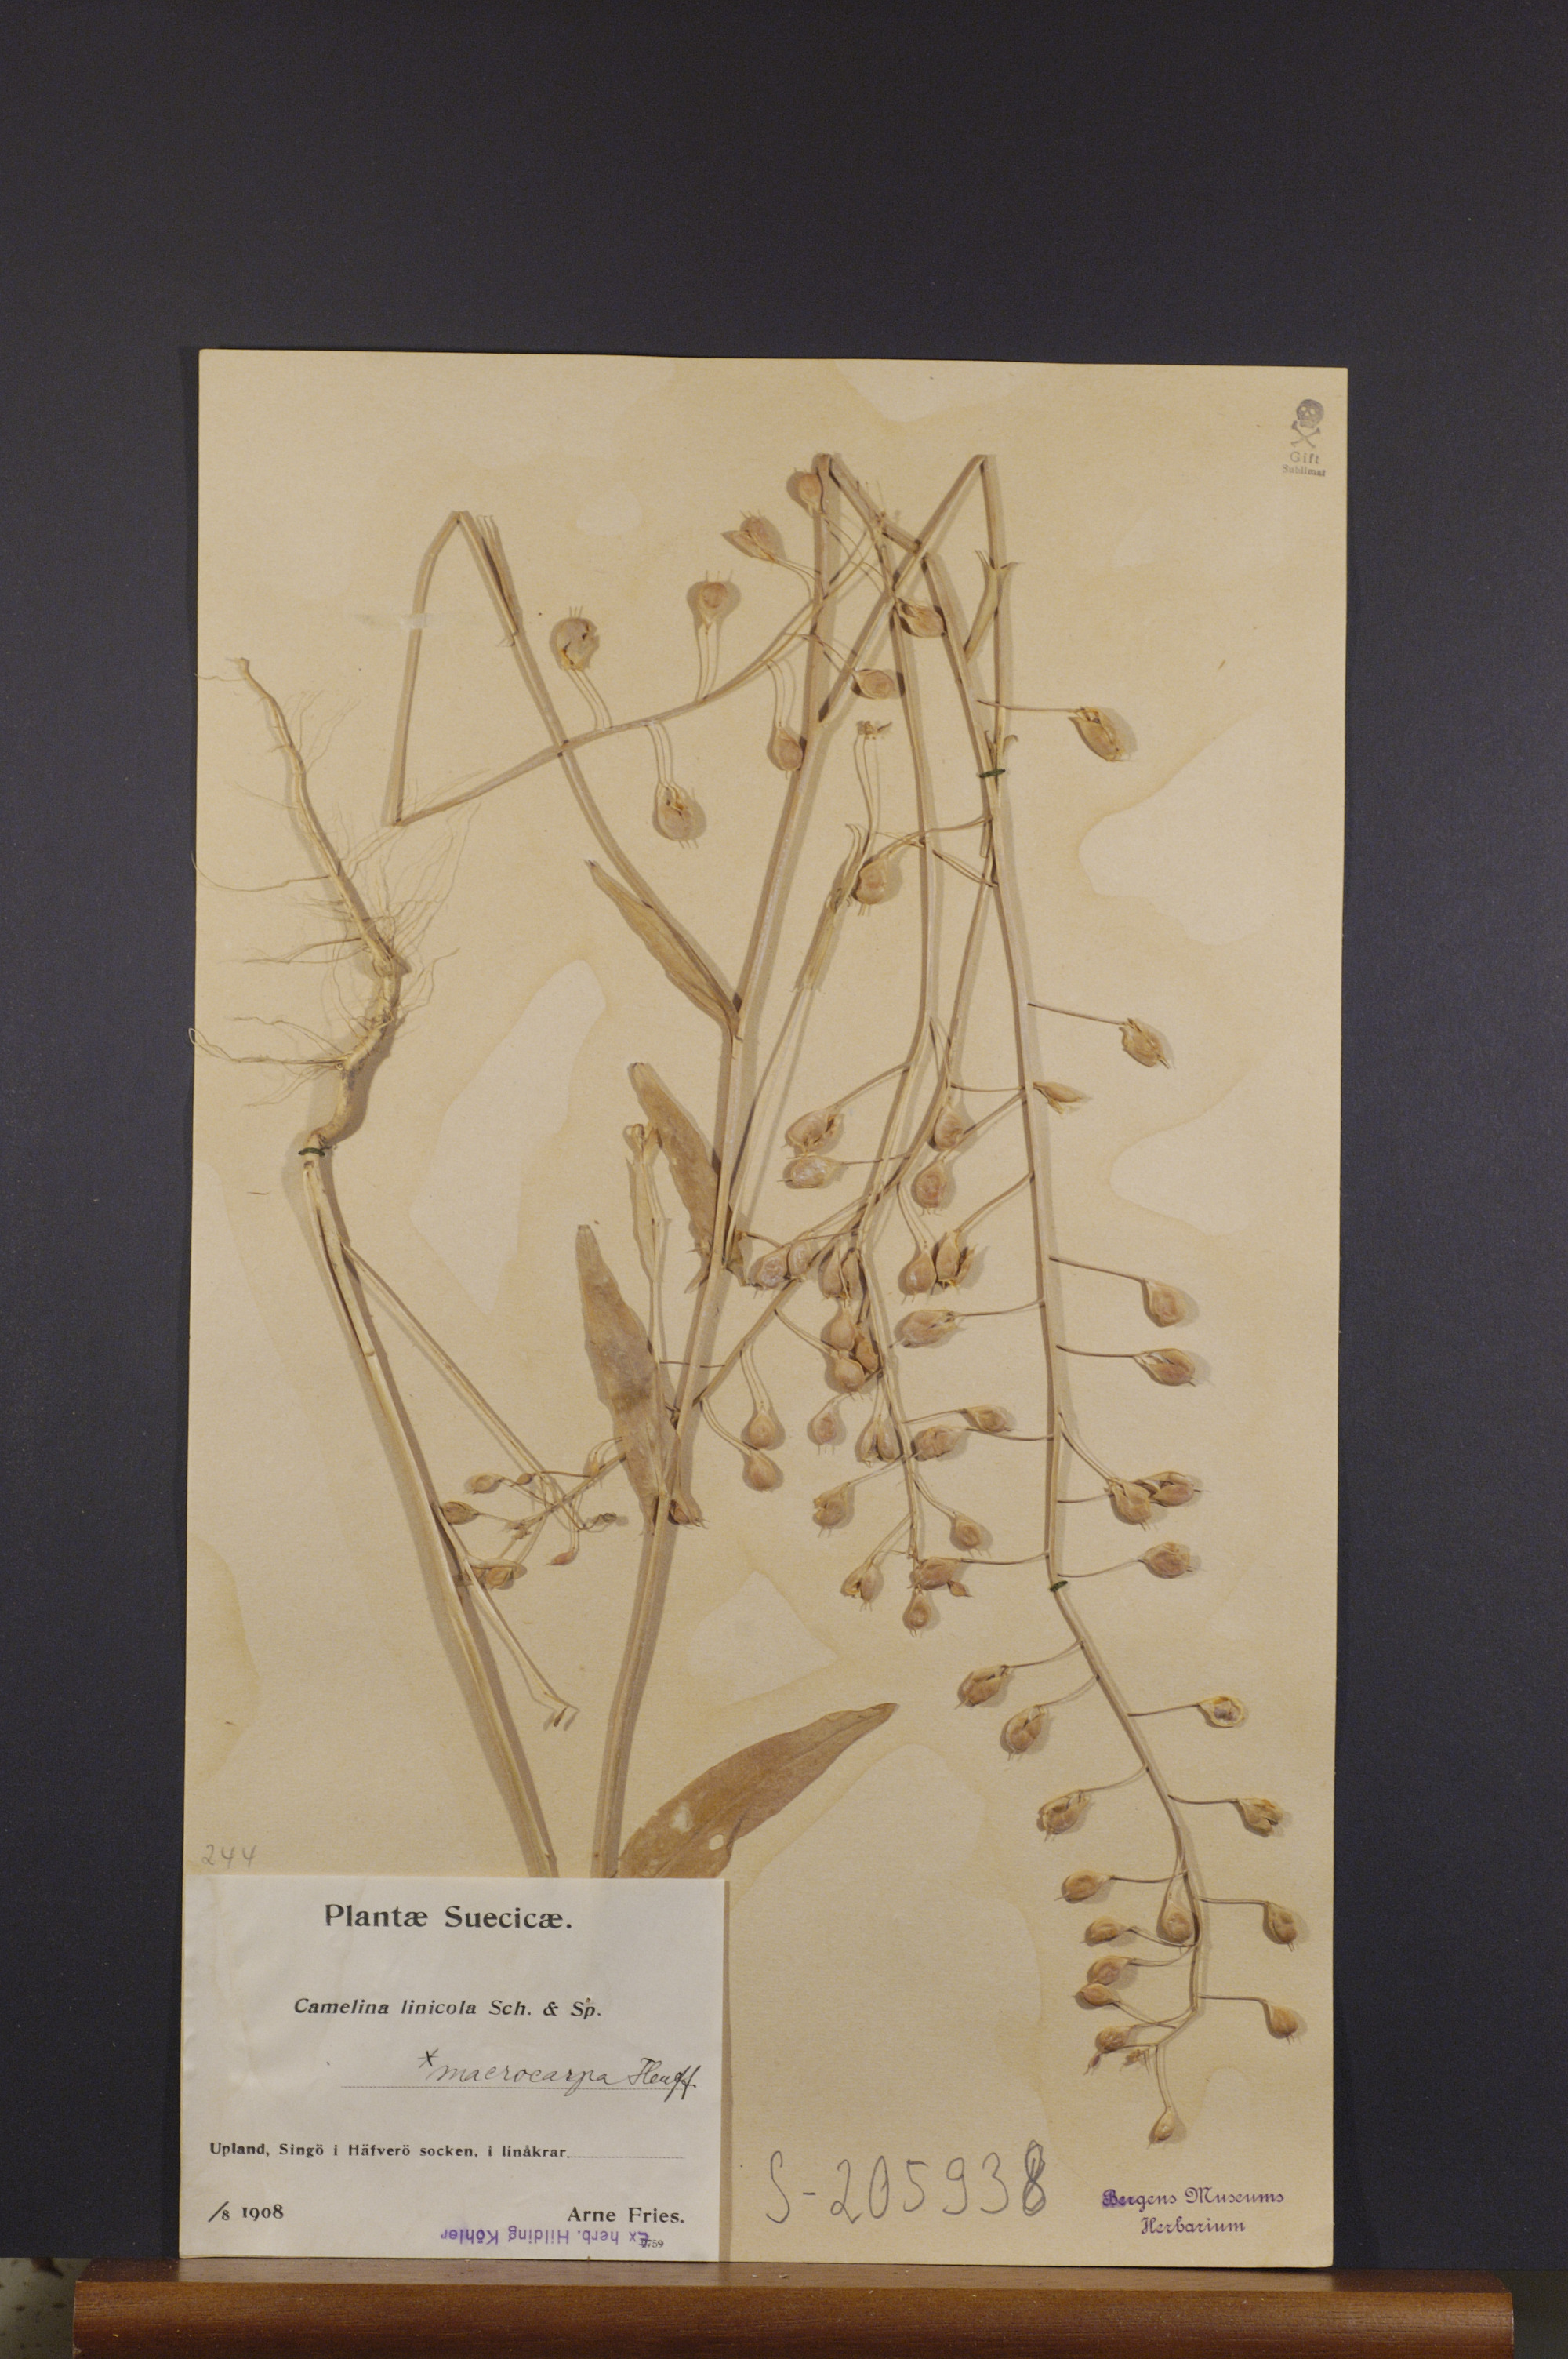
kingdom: Plantae
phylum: Tracheophyta
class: Magnoliopsida
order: Brassicales
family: Brassicaceae
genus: Camelina
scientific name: Camelina alyssum
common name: Gold-of-pleasure
